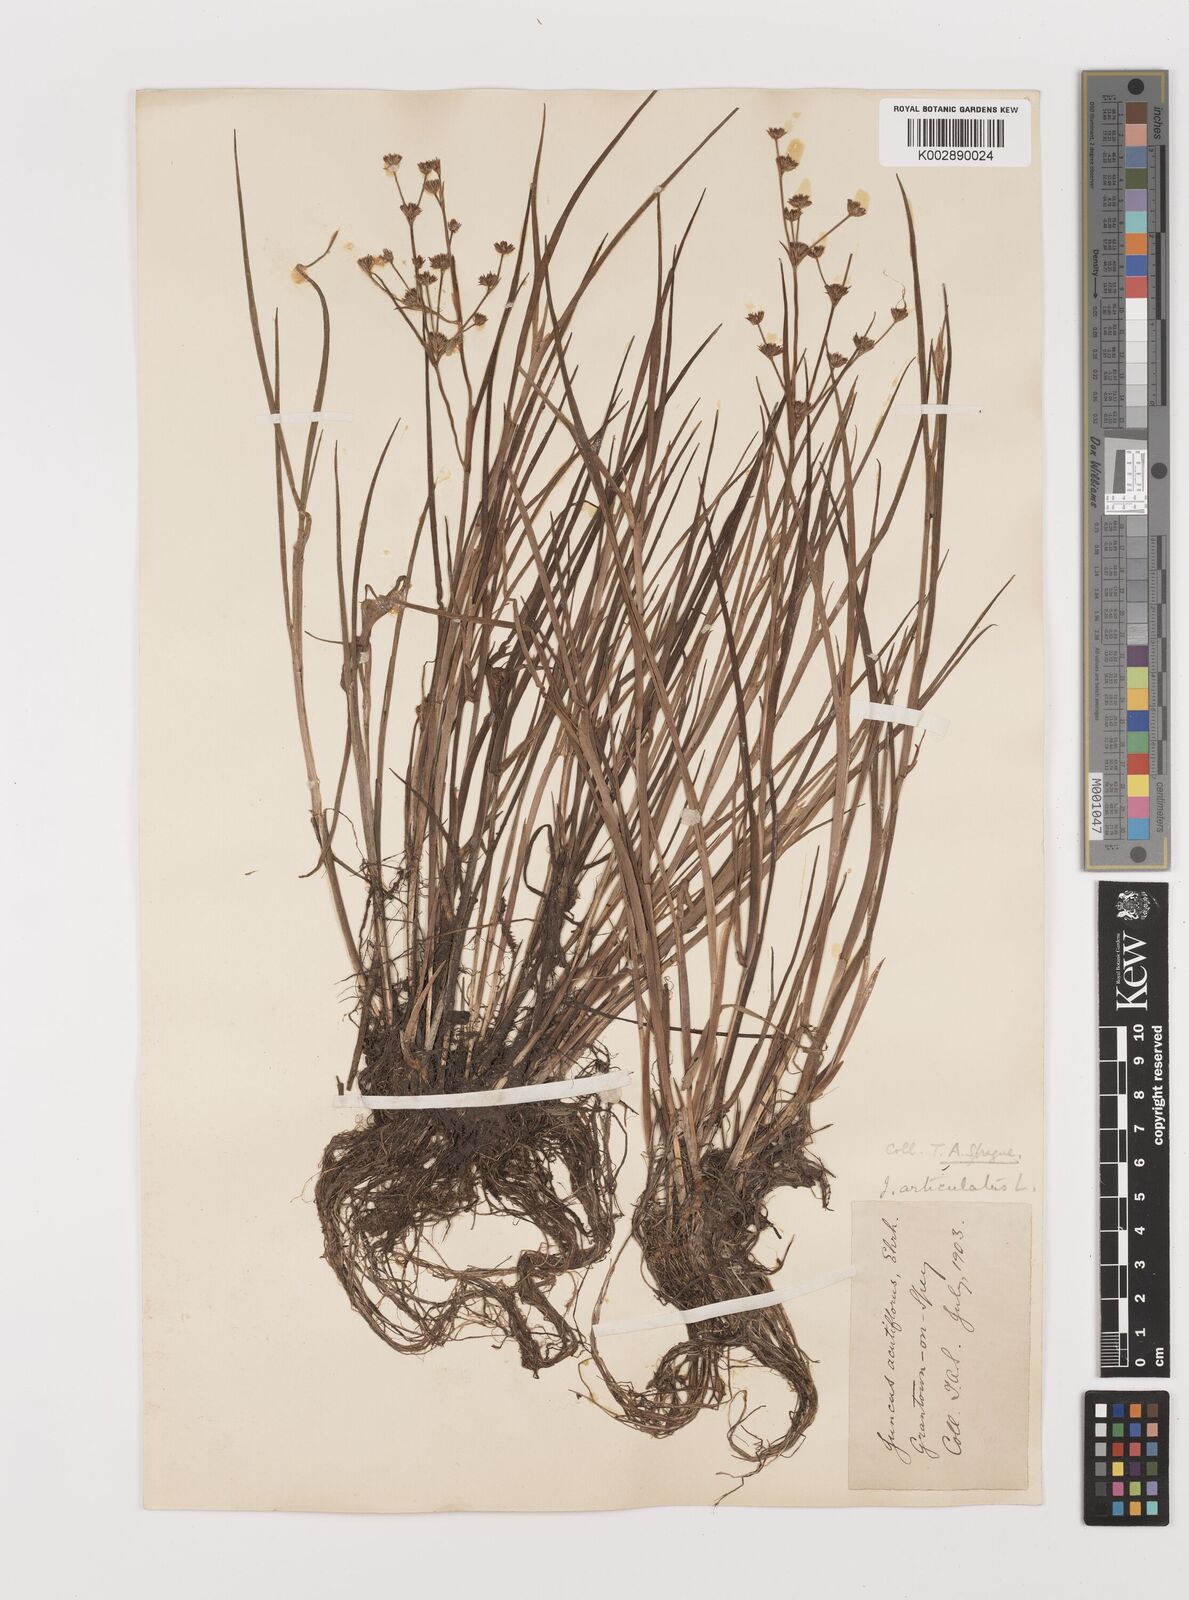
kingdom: Plantae
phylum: Tracheophyta
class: Liliopsida
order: Poales
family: Juncaceae
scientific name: Juncaceae
